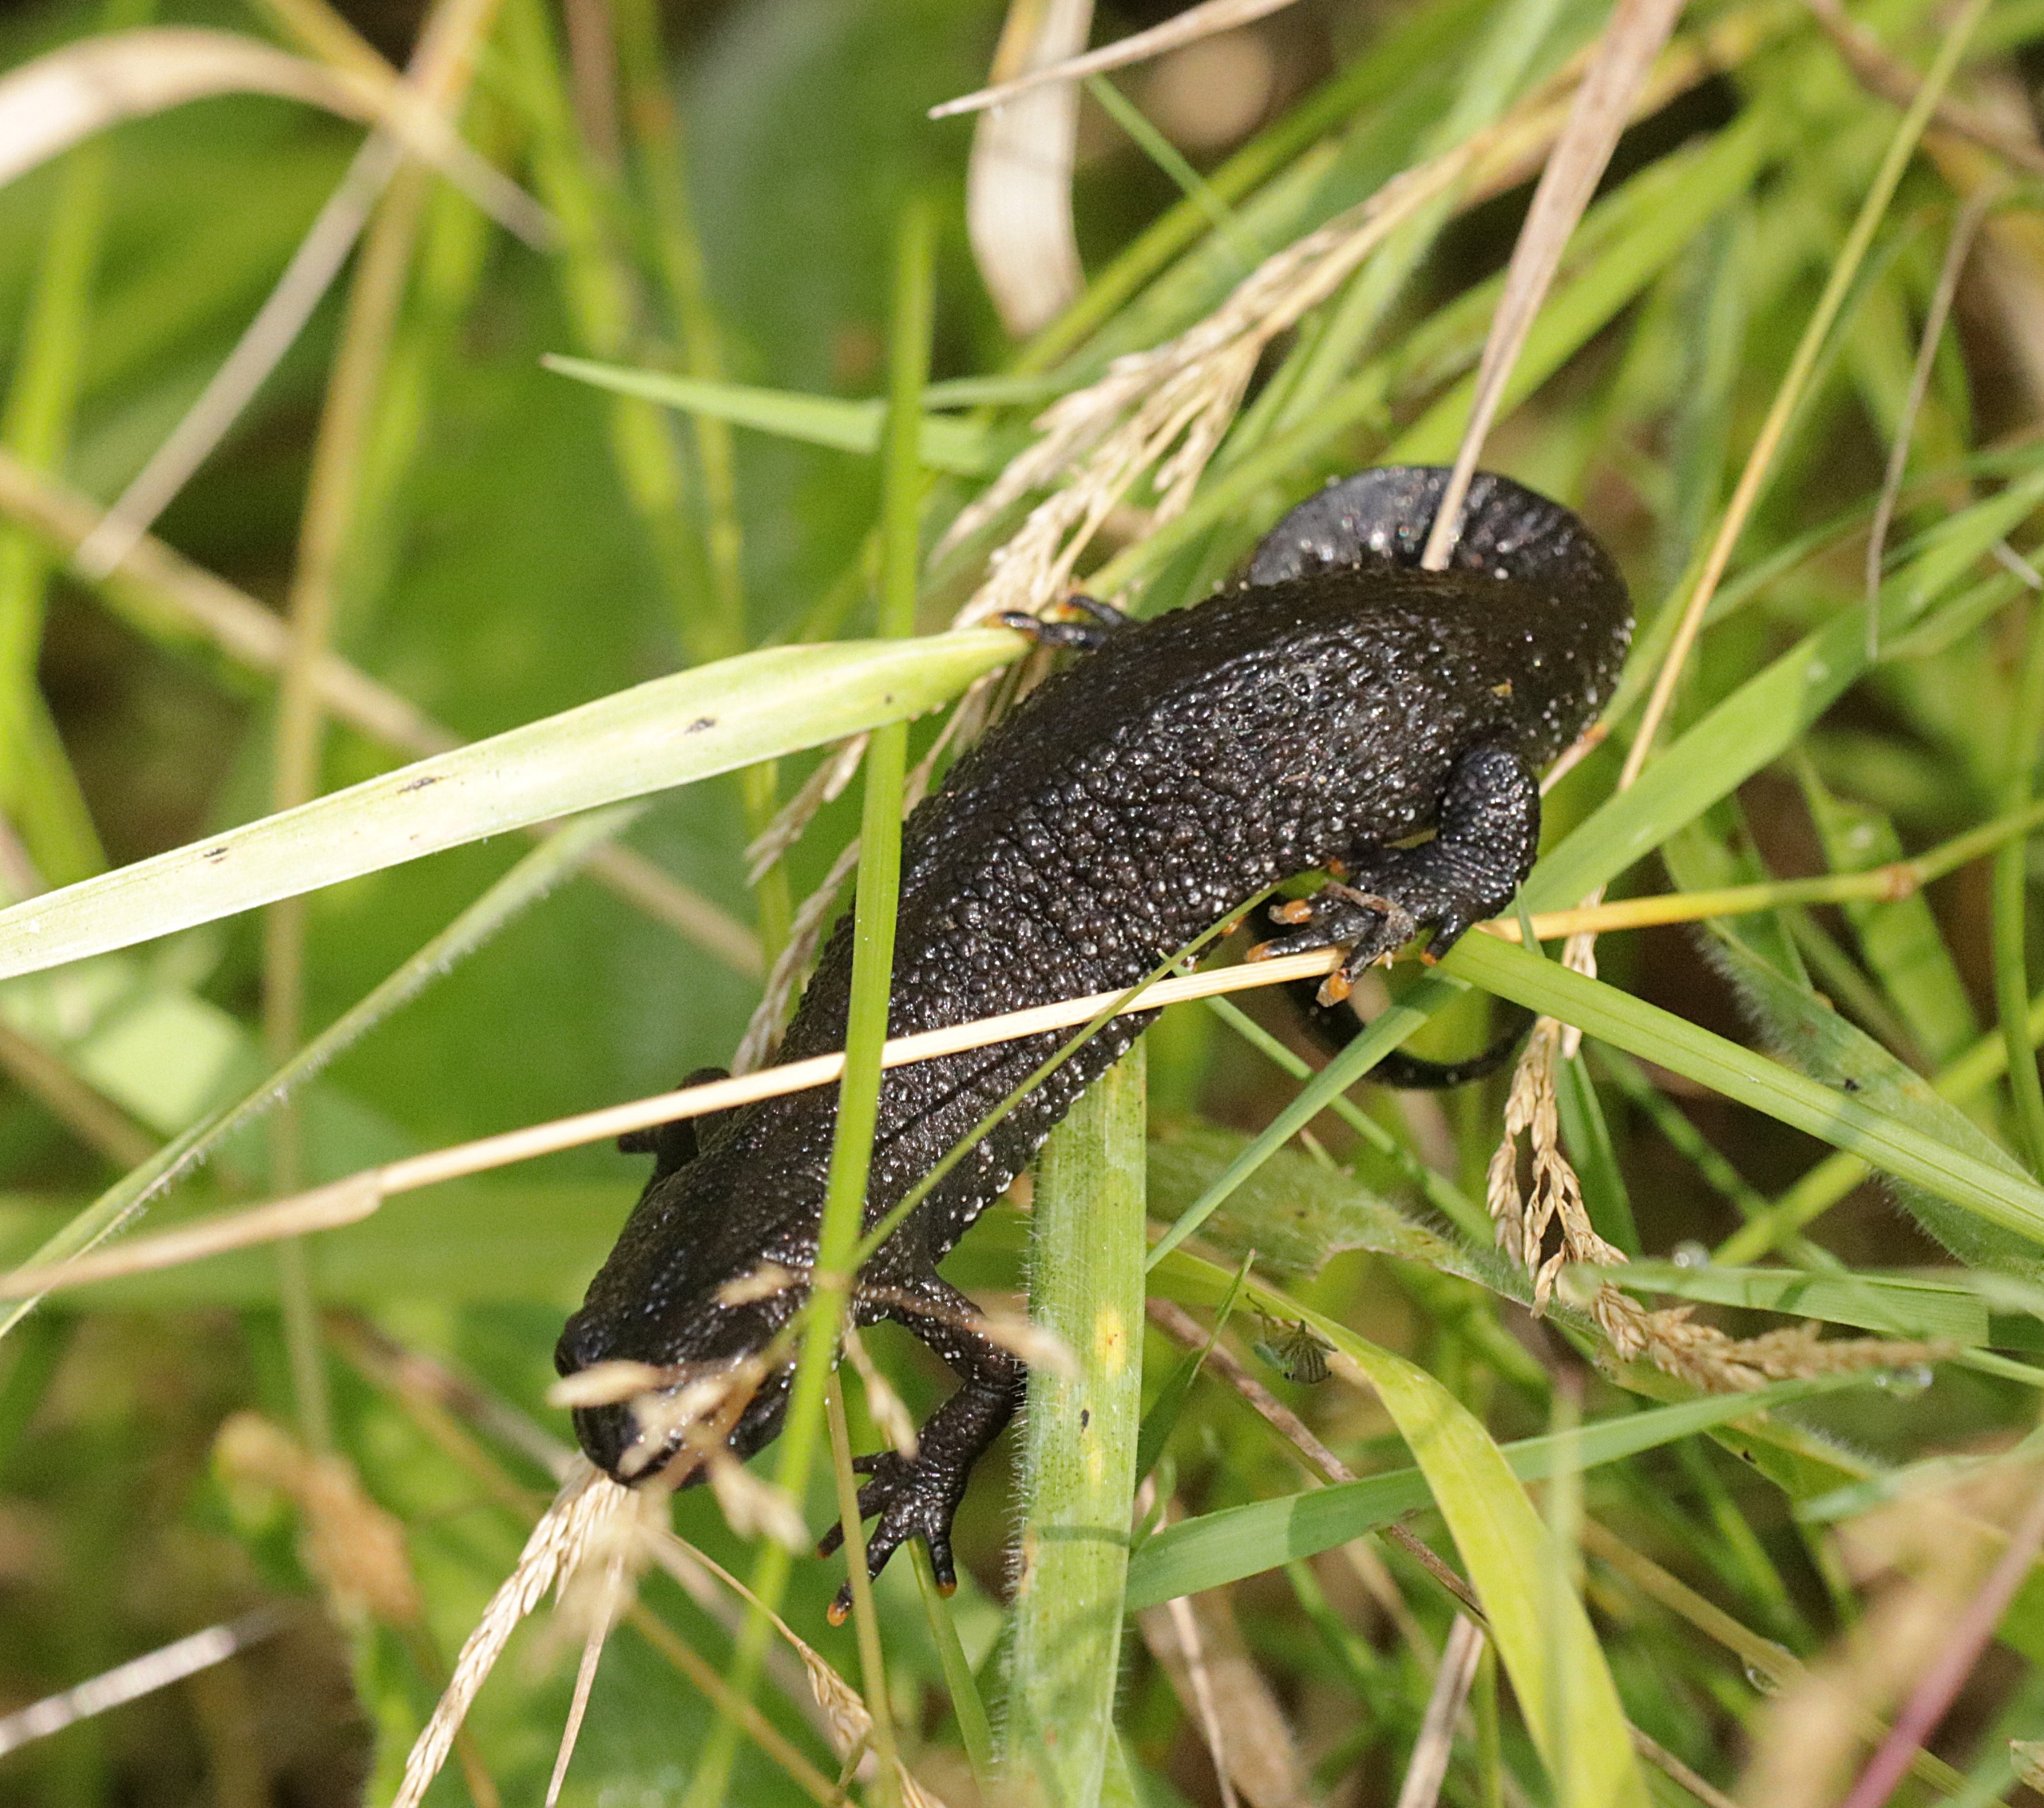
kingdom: Animalia
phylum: Chordata
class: Amphibia
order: Caudata
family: Salamandridae
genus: Triturus
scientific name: Triturus cristatus
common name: Stor vandsalamander
